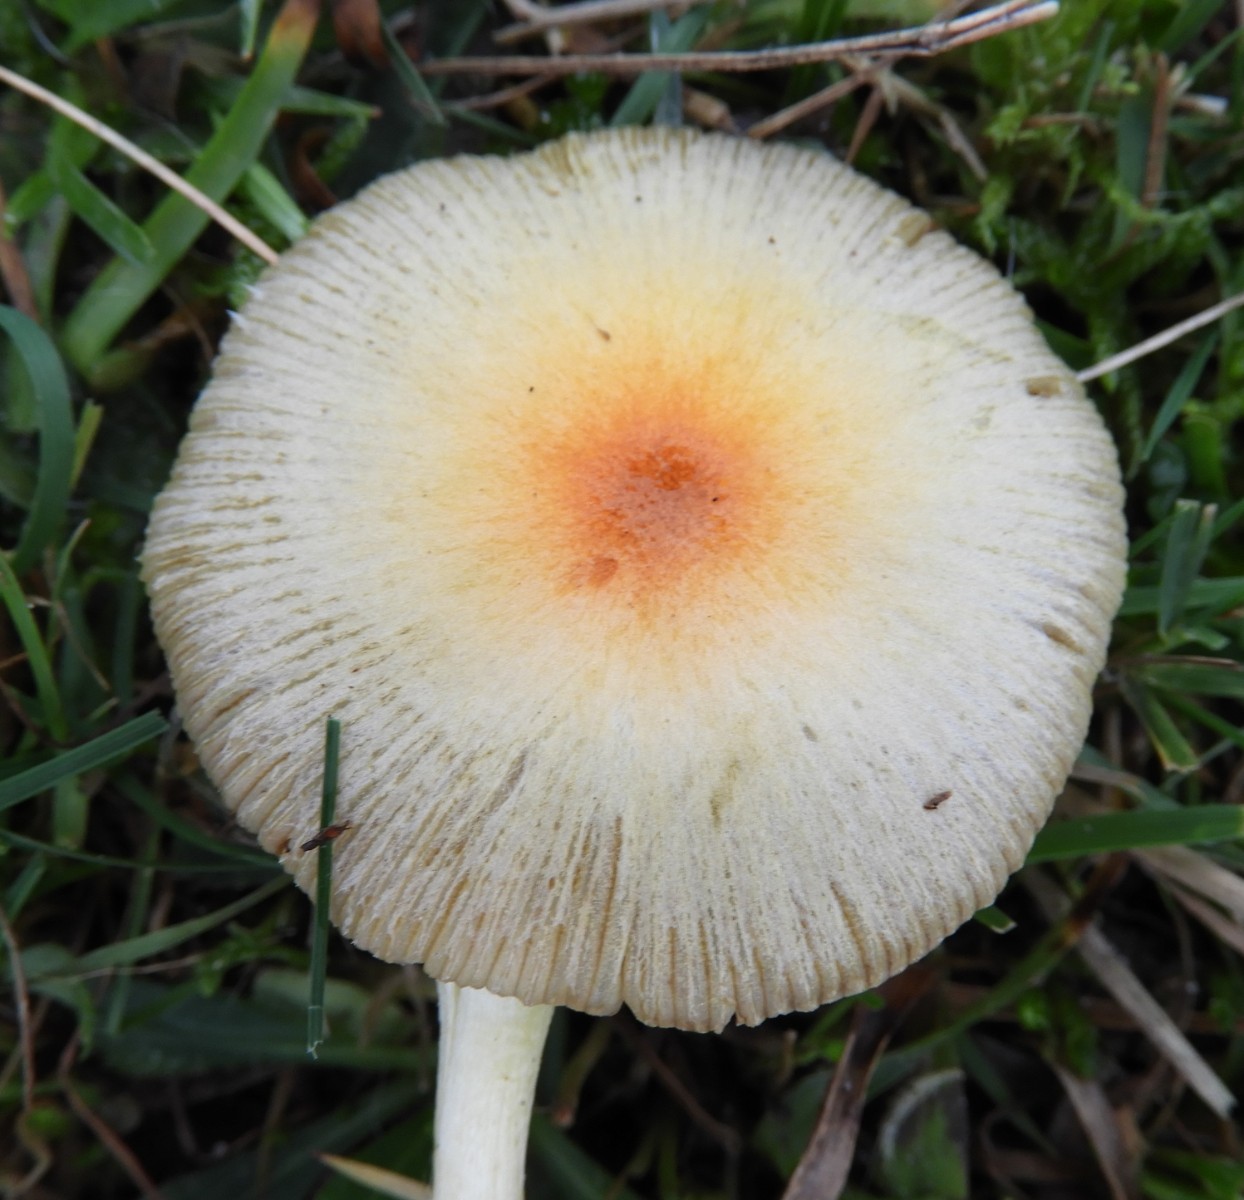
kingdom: Fungi
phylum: Basidiomycota
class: Agaricomycetes
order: Agaricales
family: Bolbitiaceae
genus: Bolbitius
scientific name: Bolbitius titubans
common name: almindelig gulhat
